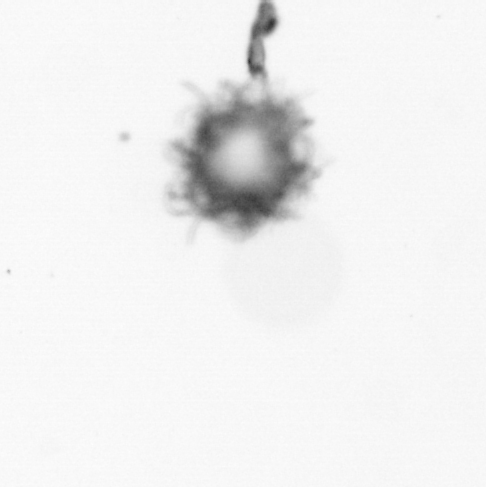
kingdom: Bacteria
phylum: Cyanobacteria
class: Cyanobacteriia
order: Cyanobacteriales
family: Microcoleaceae
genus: Trichodesmium
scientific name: Trichodesmium
